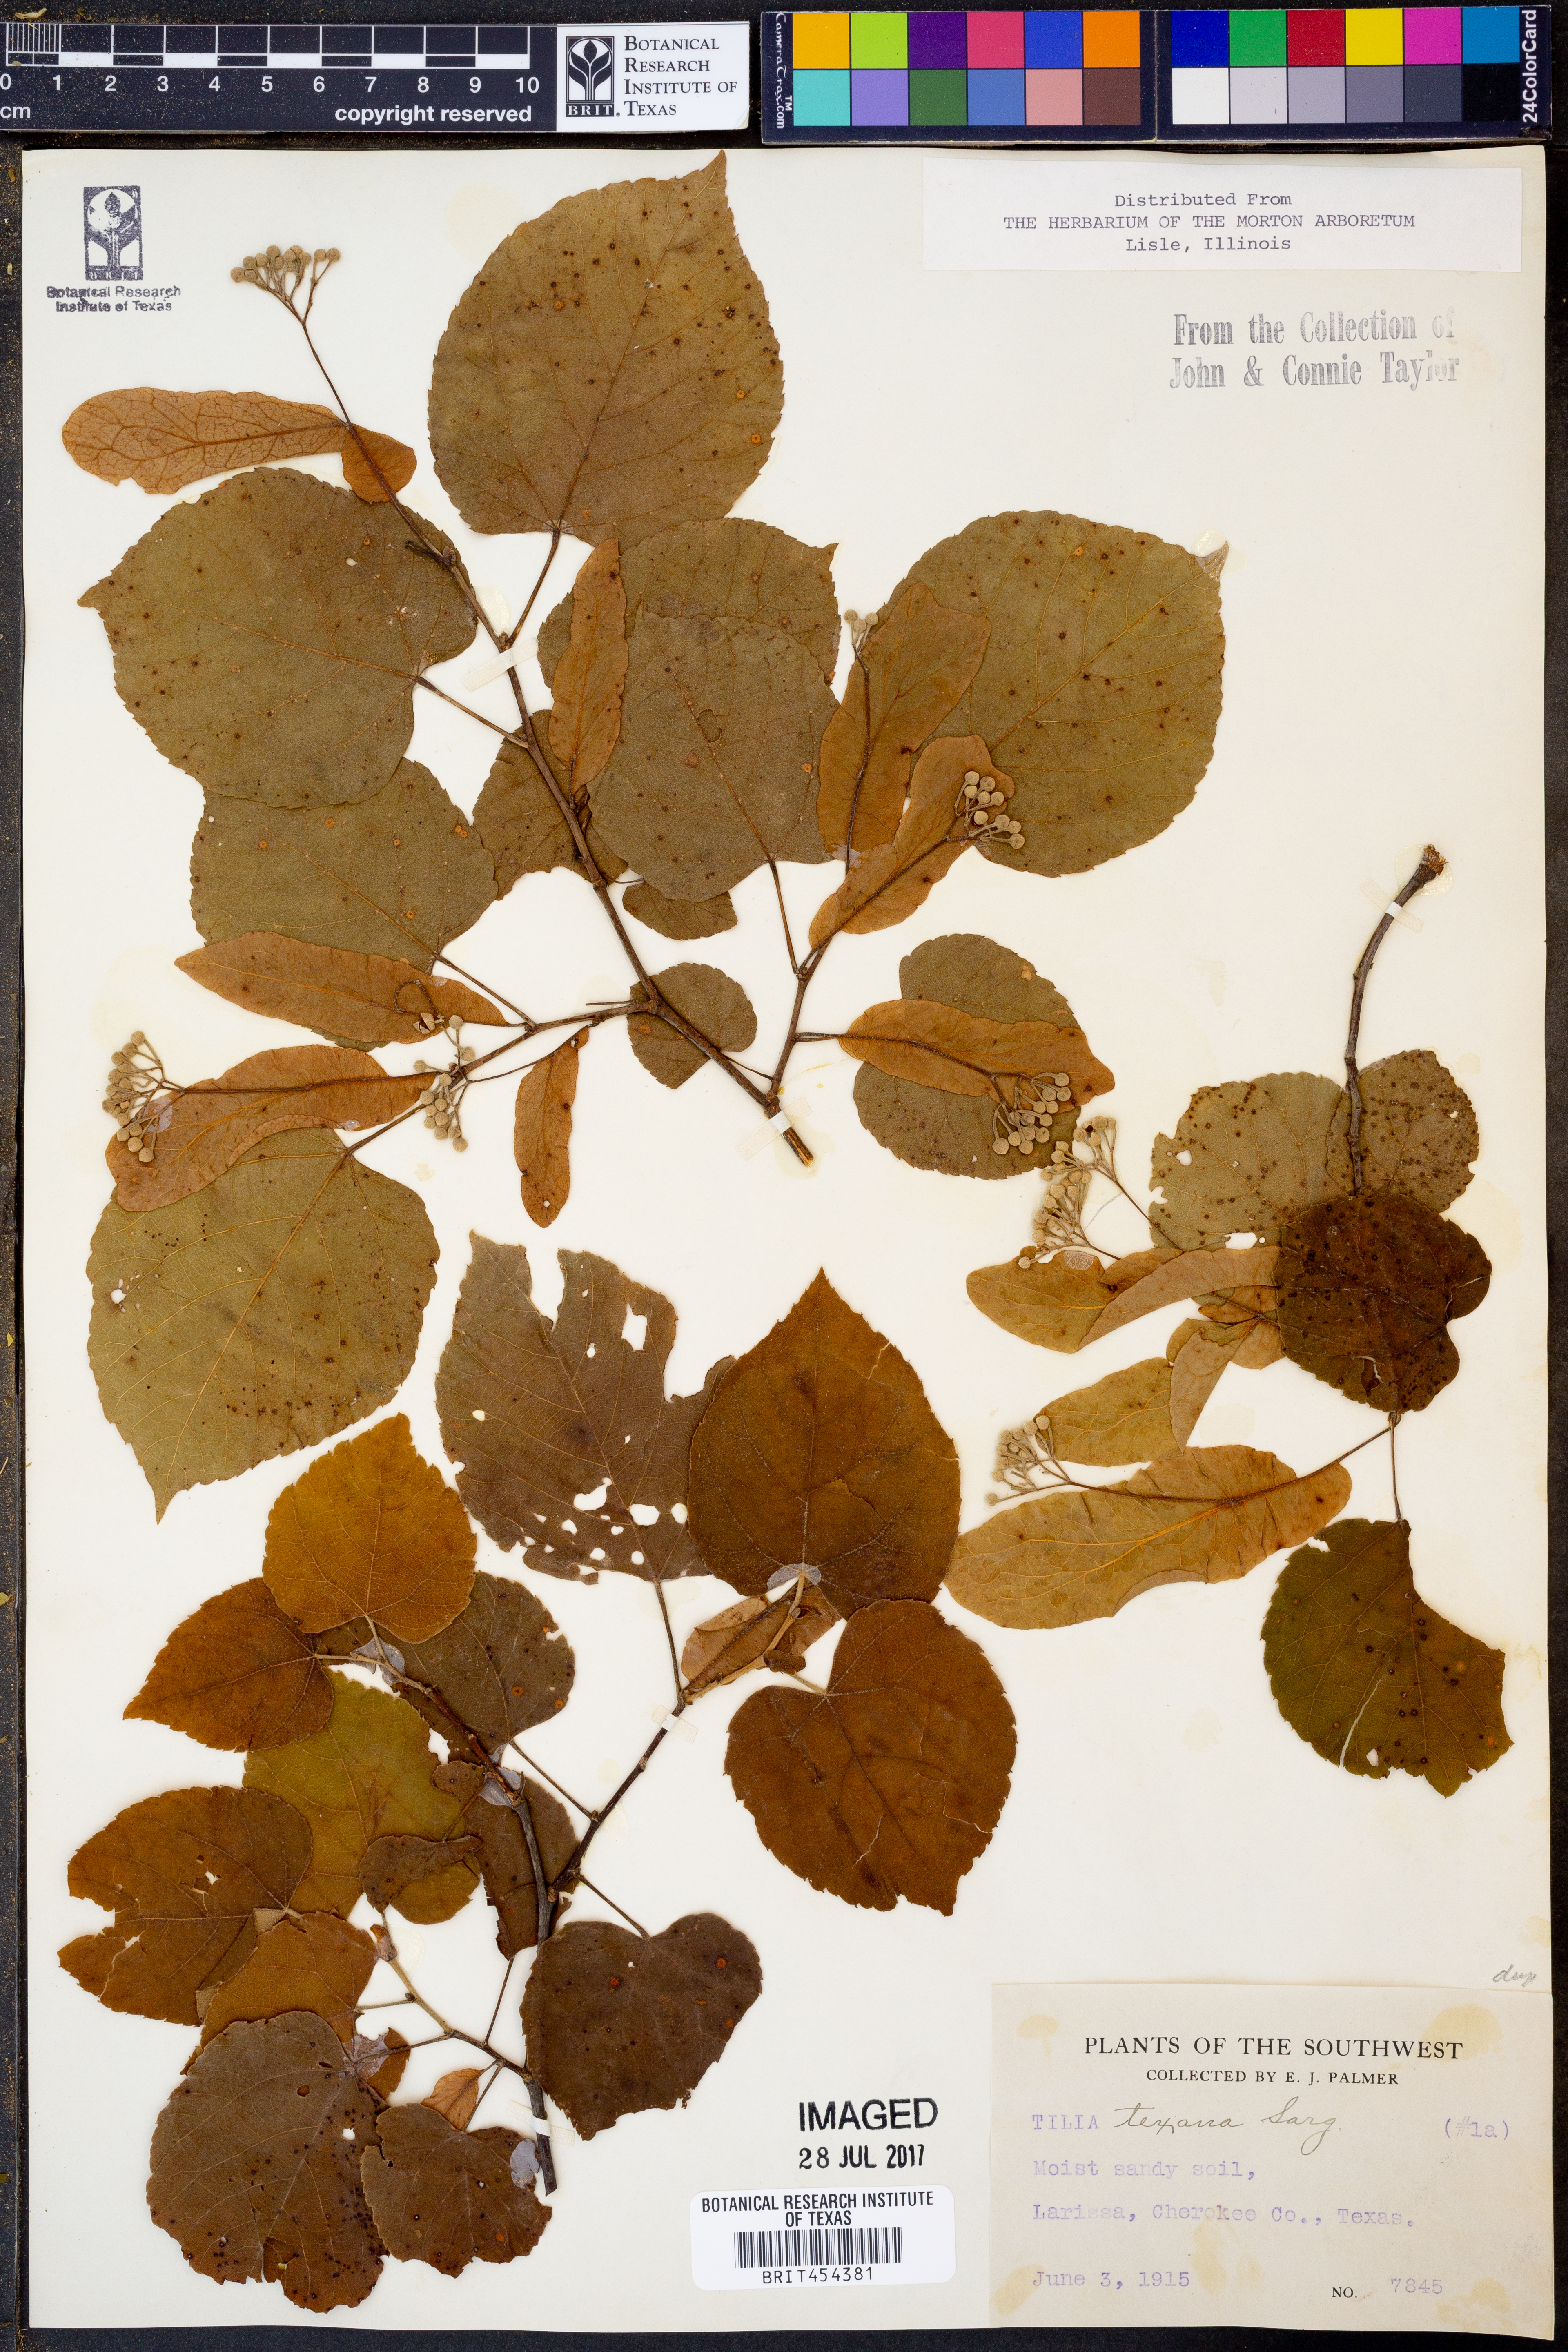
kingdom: Plantae
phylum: Tracheophyta
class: Magnoliopsida
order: Malvales
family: Malvaceae
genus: Tilia
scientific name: Tilia americana
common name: Basswood
